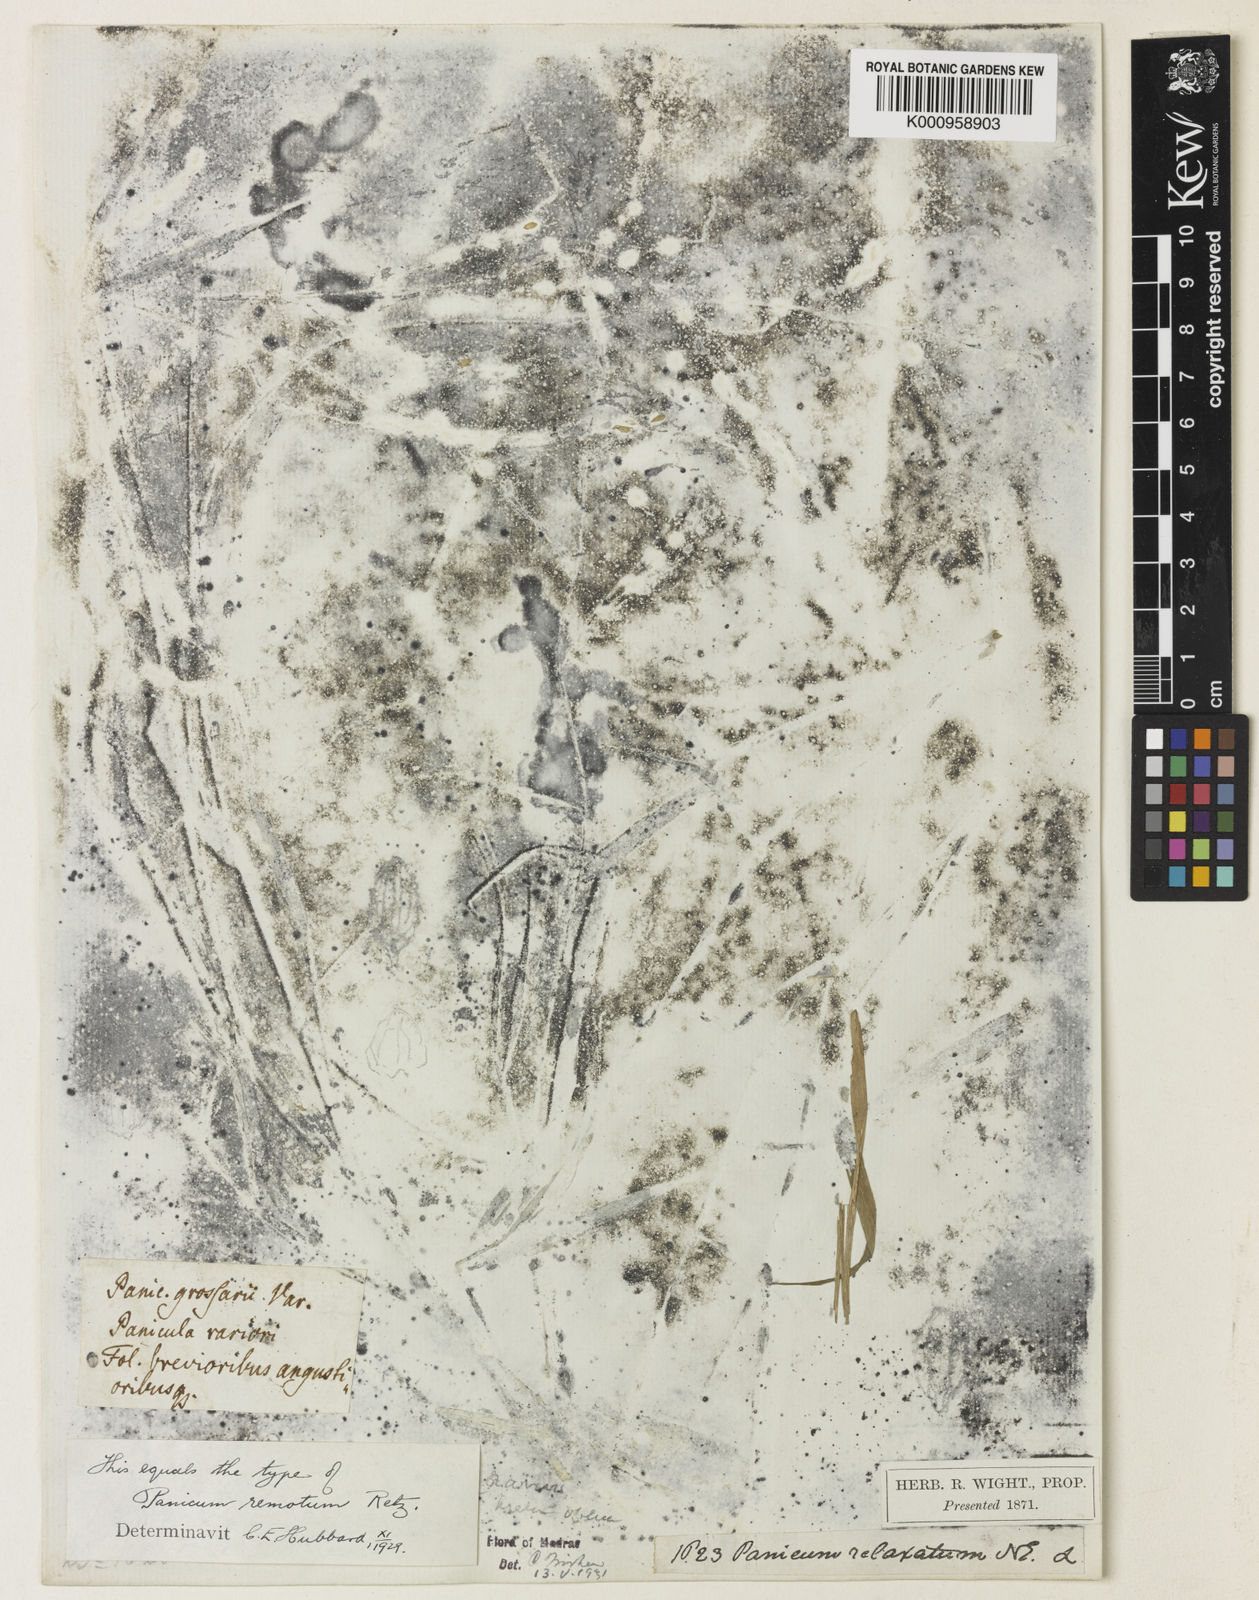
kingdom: Plantae
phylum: Tracheophyta
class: Liliopsida
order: Poales
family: Poaceae
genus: Urochloa
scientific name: Urochloa Brachiaria remota
